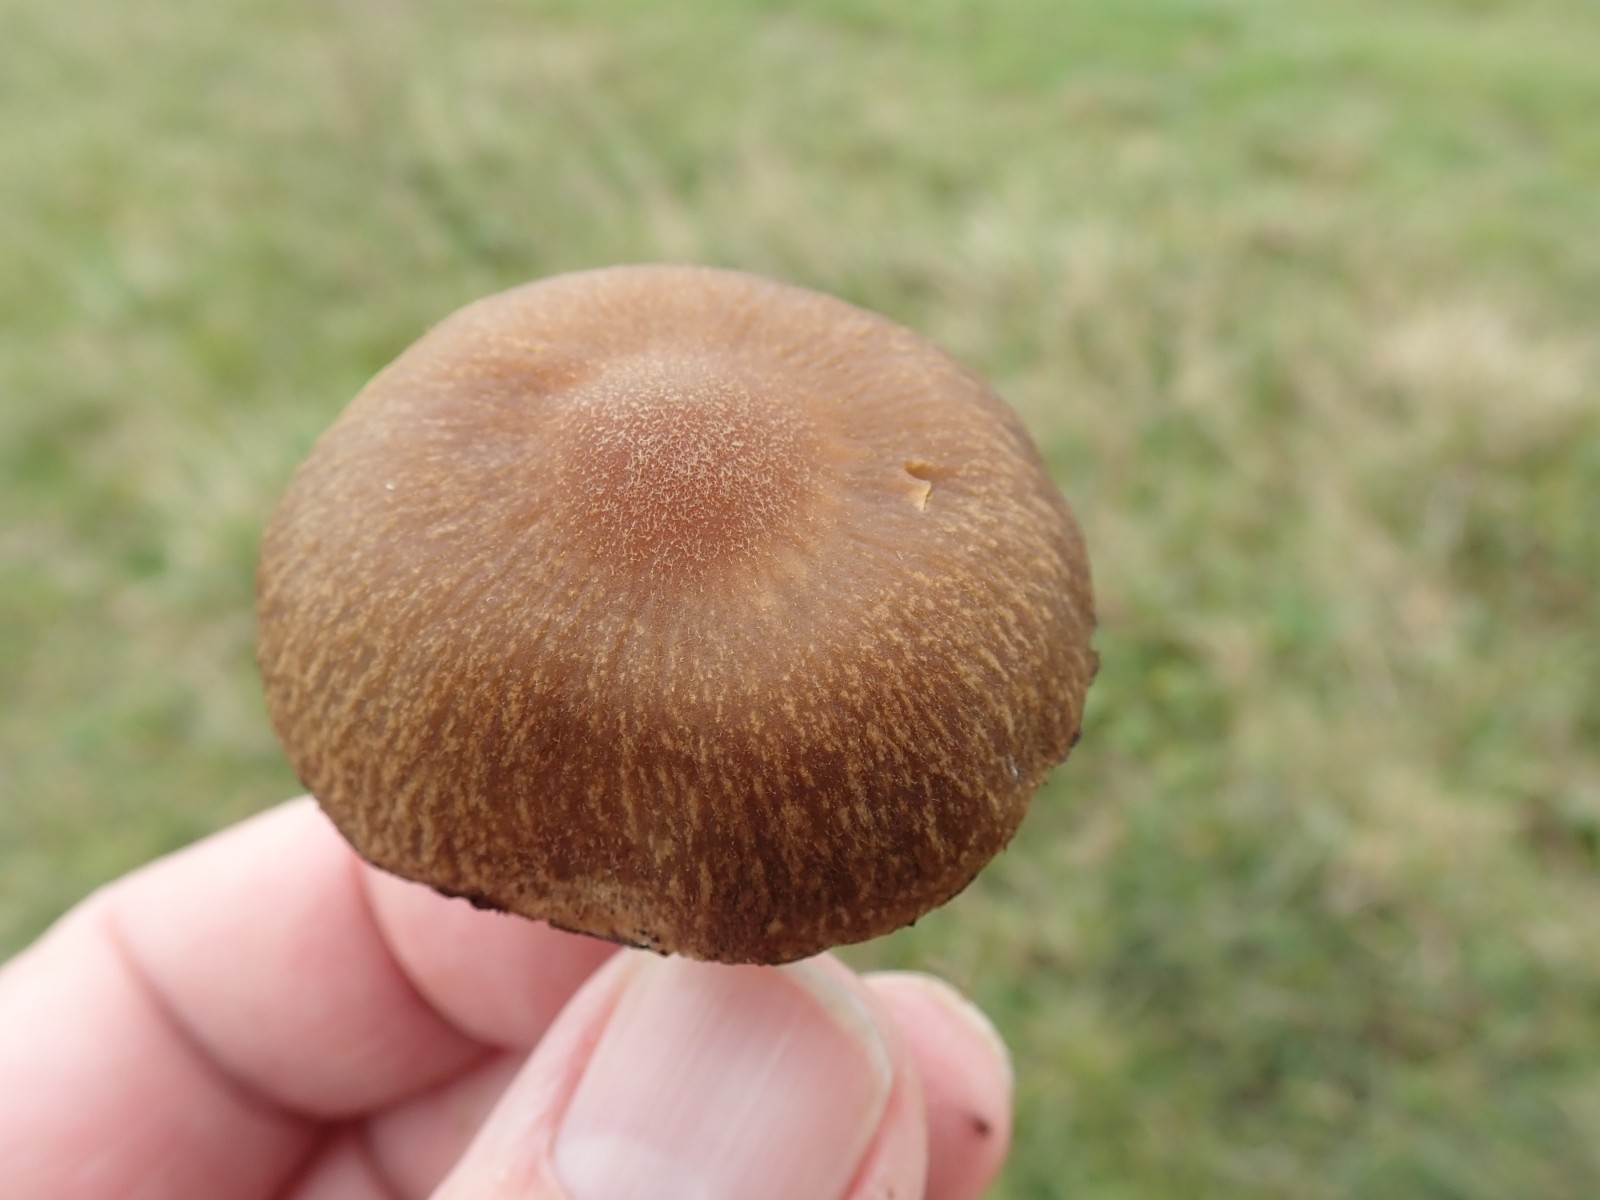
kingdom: Fungi
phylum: Basidiomycota
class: Agaricomycetes
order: Agaricales
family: Psathyrellaceae
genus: Lacrymaria
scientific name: Lacrymaria lacrymabunda
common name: grædende mørkhat
